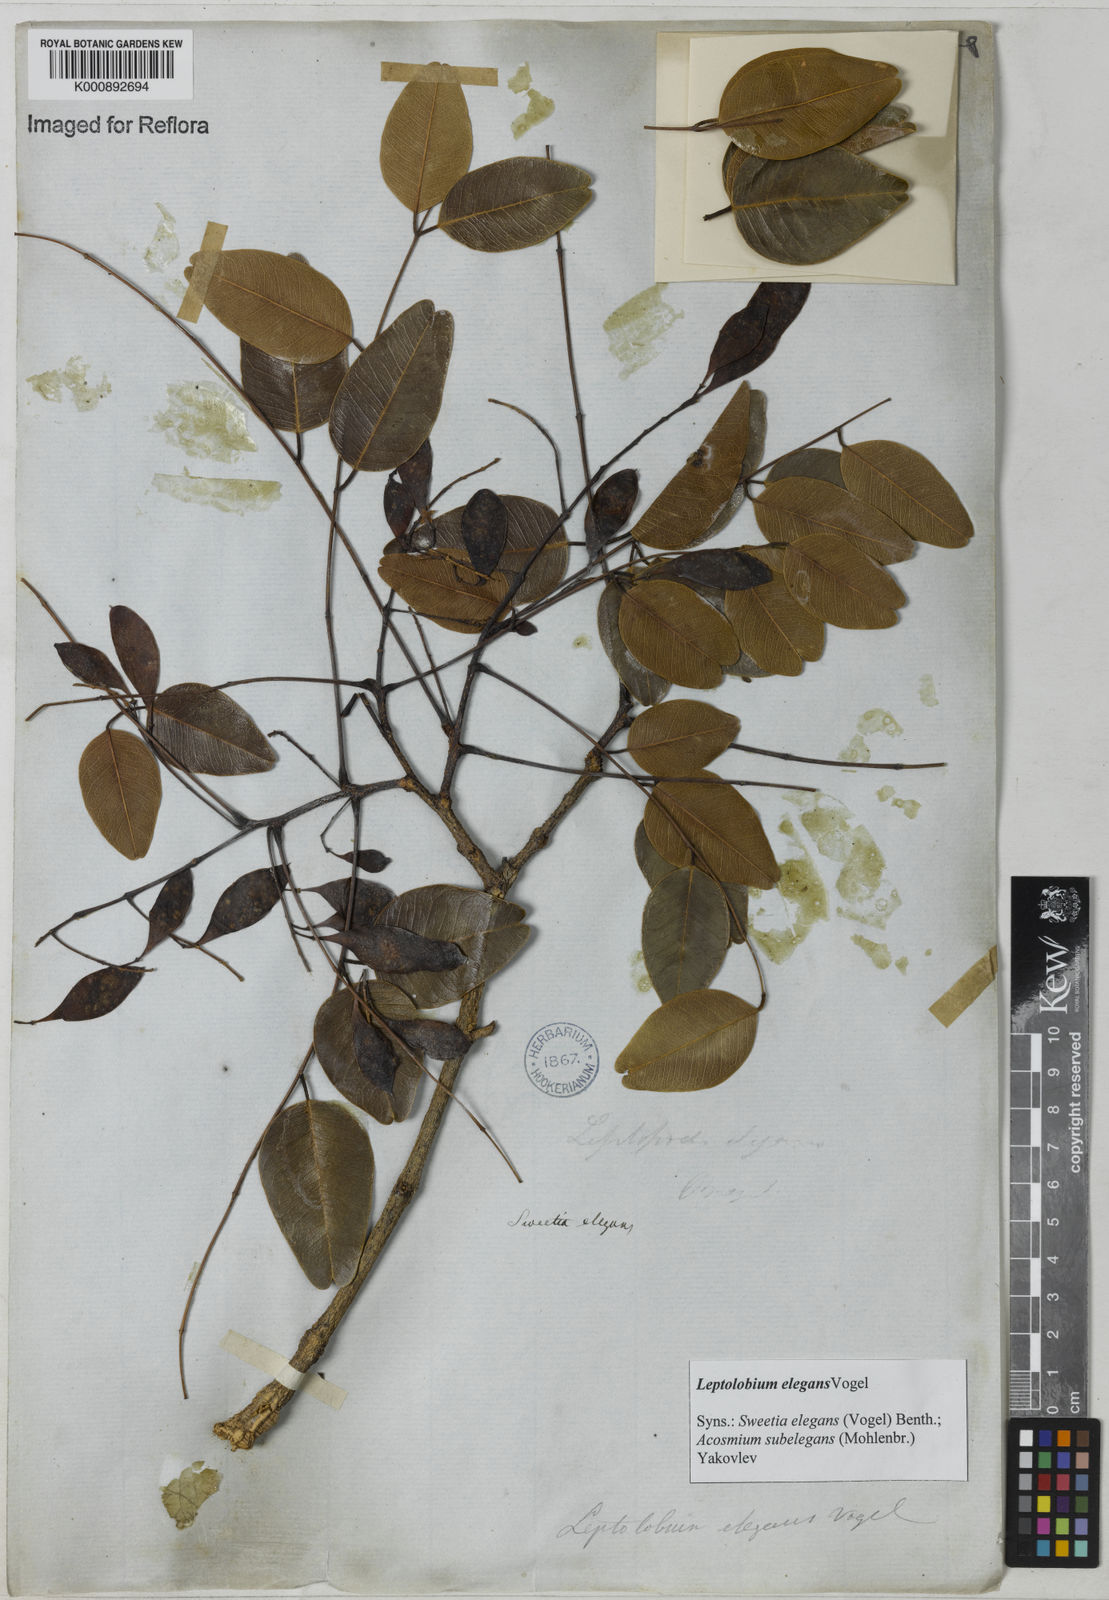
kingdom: Plantae
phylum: Tracheophyta
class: Magnoliopsida
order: Fabales
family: Fabaceae
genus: Leptolobium
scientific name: Leptolobium elegans
